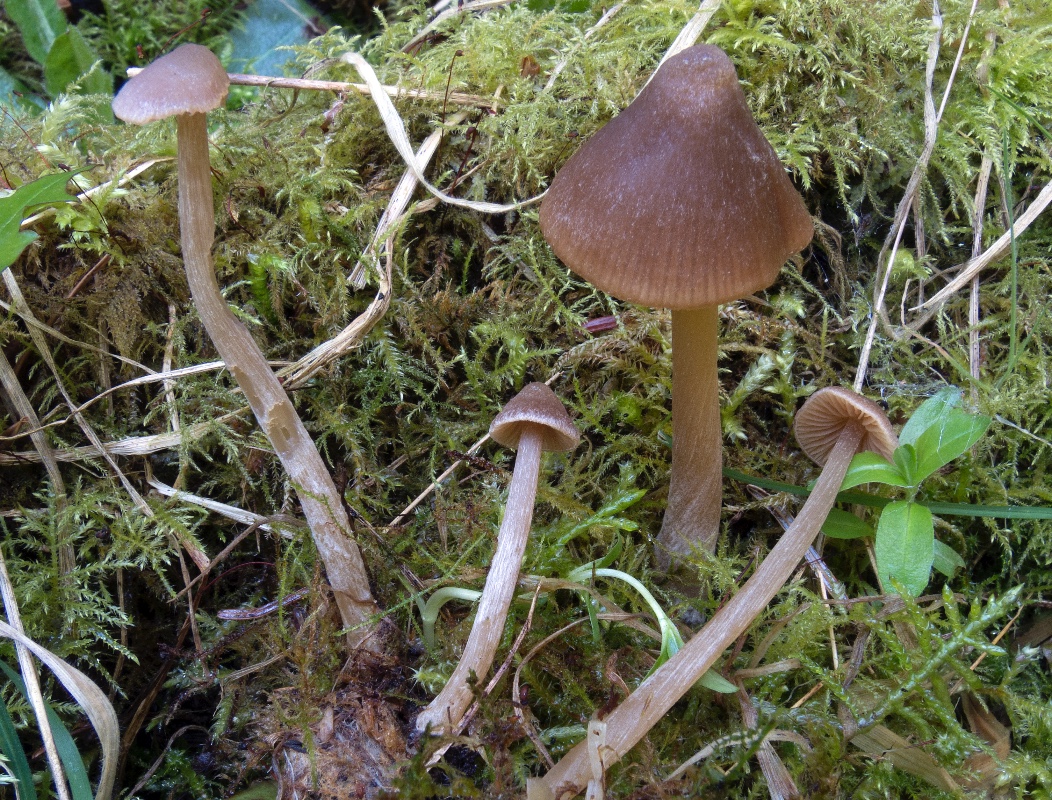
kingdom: Fungi
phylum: Basidiomycota
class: Agaricomycetes
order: Agaricales
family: Entolomataceae
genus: Entoloma
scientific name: Entoloma vernum
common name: vår-rødblad
